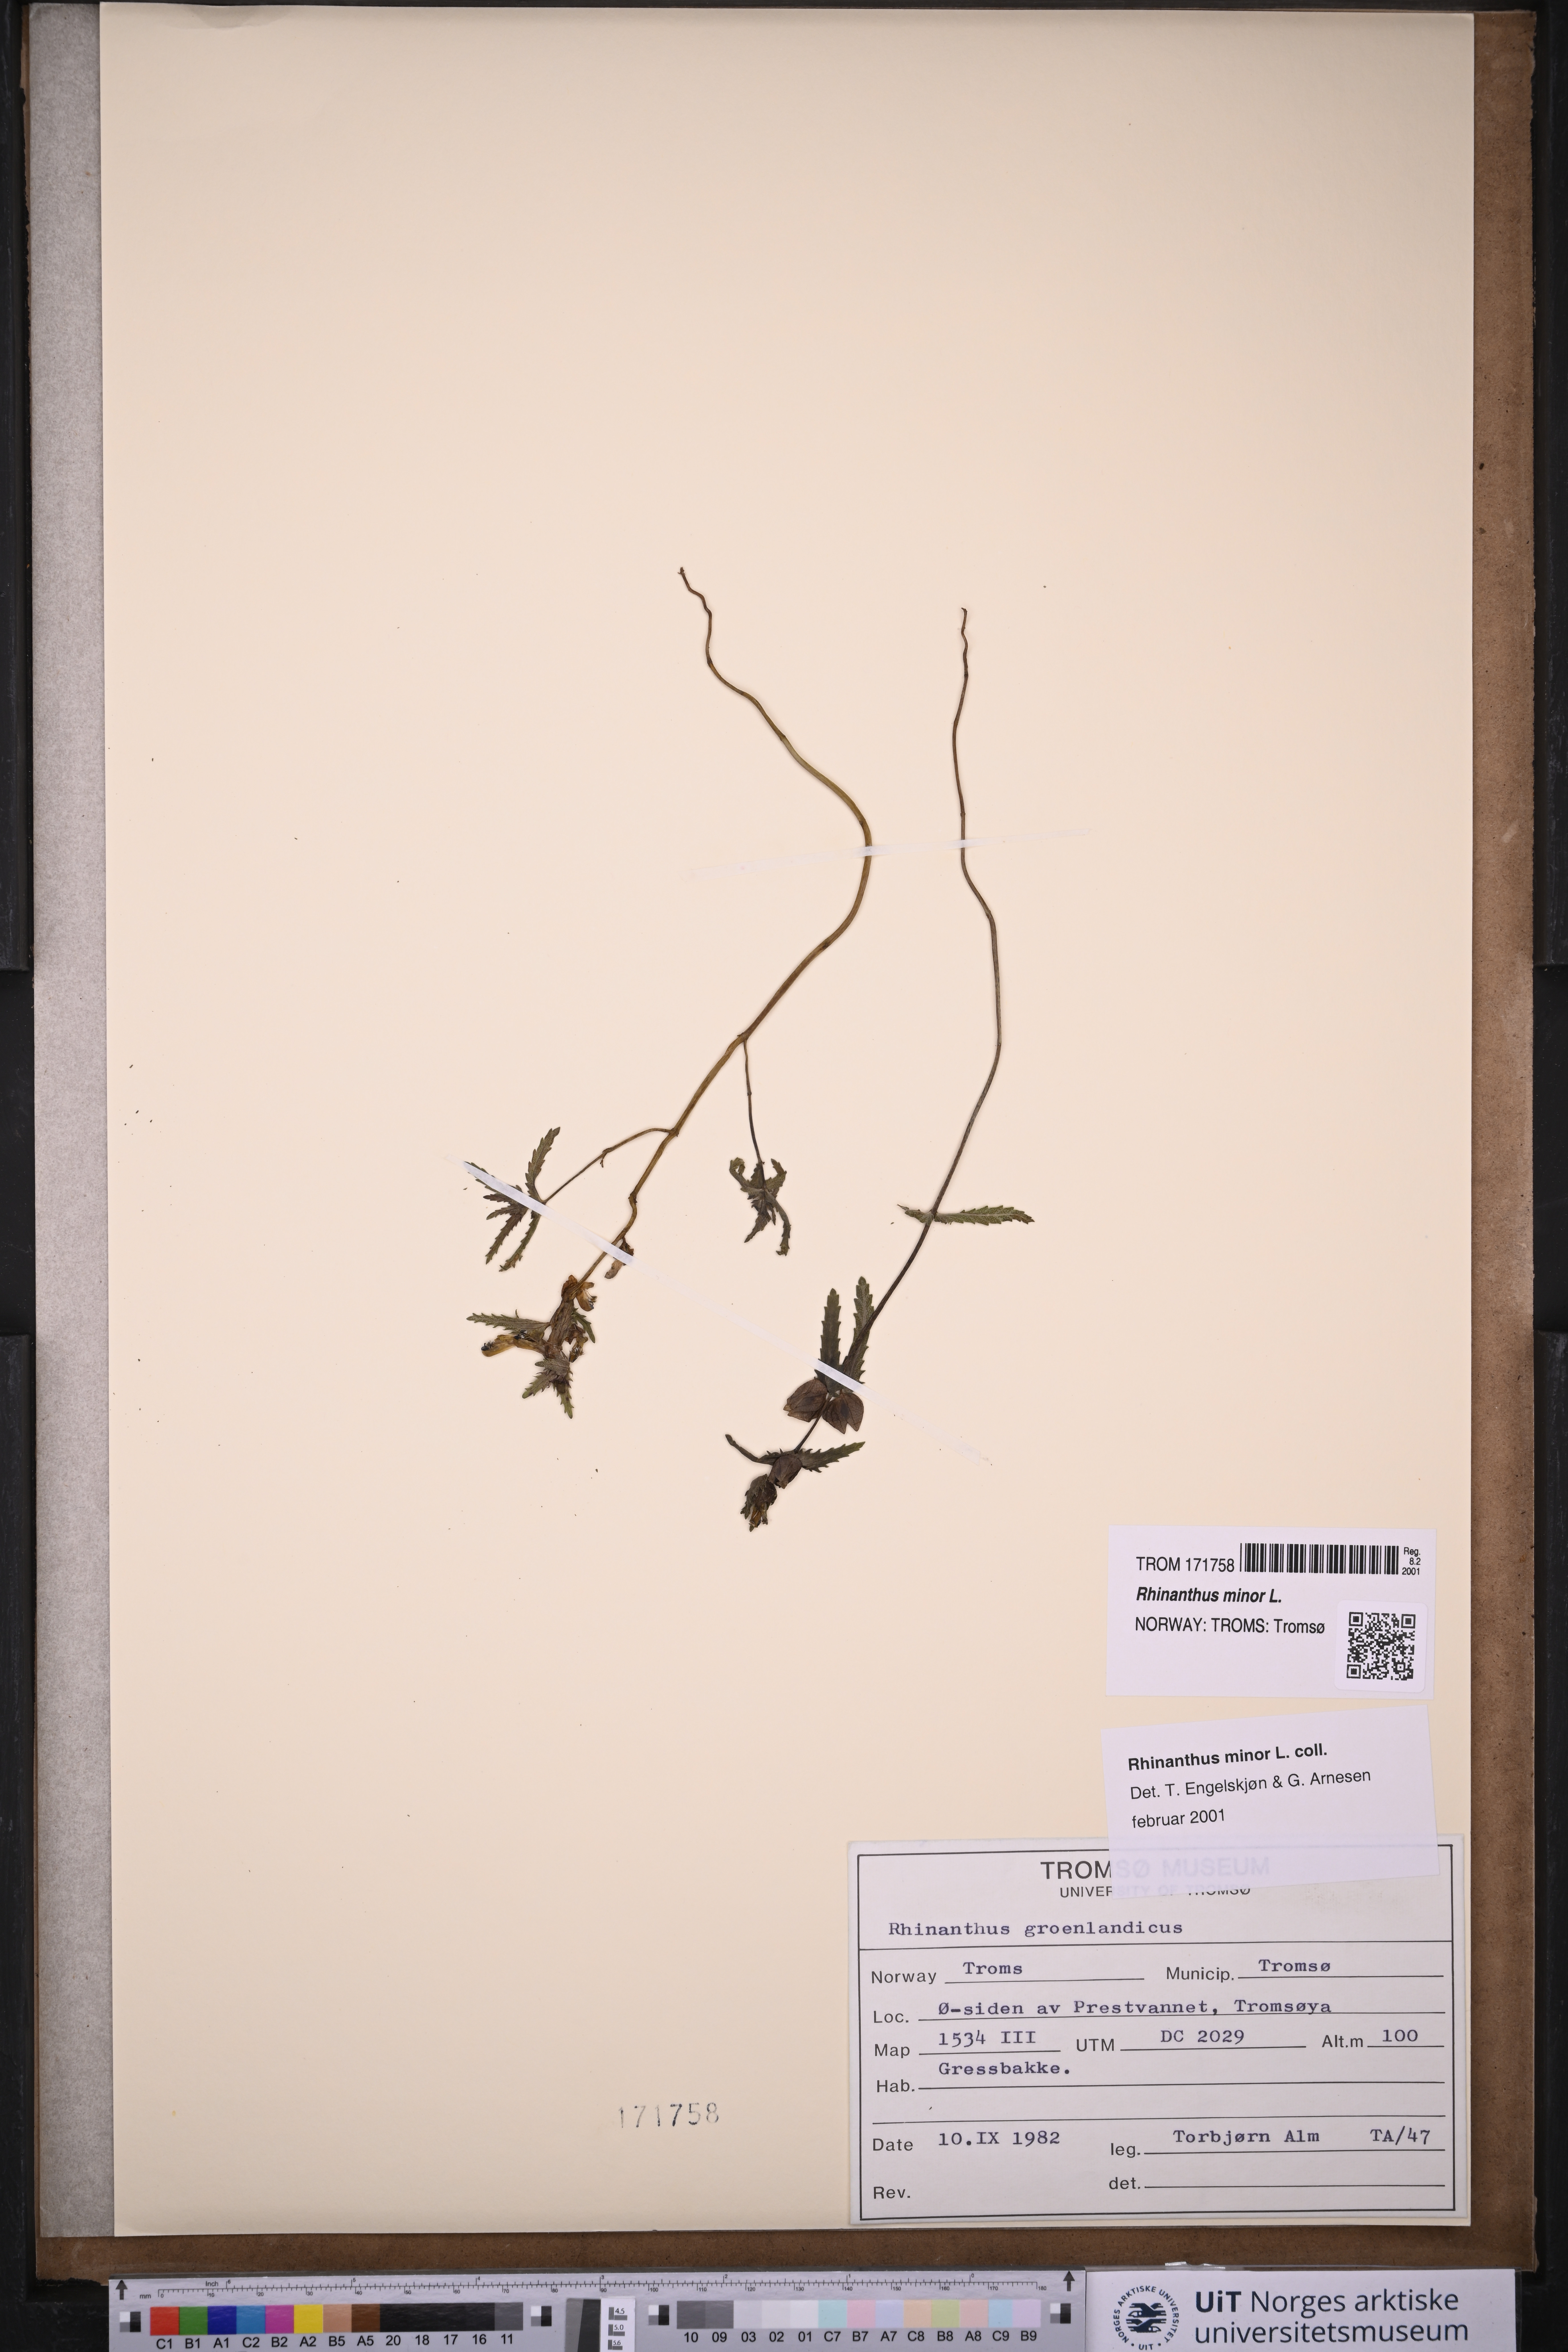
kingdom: Plantae
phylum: Tracheophyta
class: Magnoliopsida
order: Lamiales
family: Orobanchaceae
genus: Rhinanthus
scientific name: Rhinanthus minor
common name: Yellow-rattle
